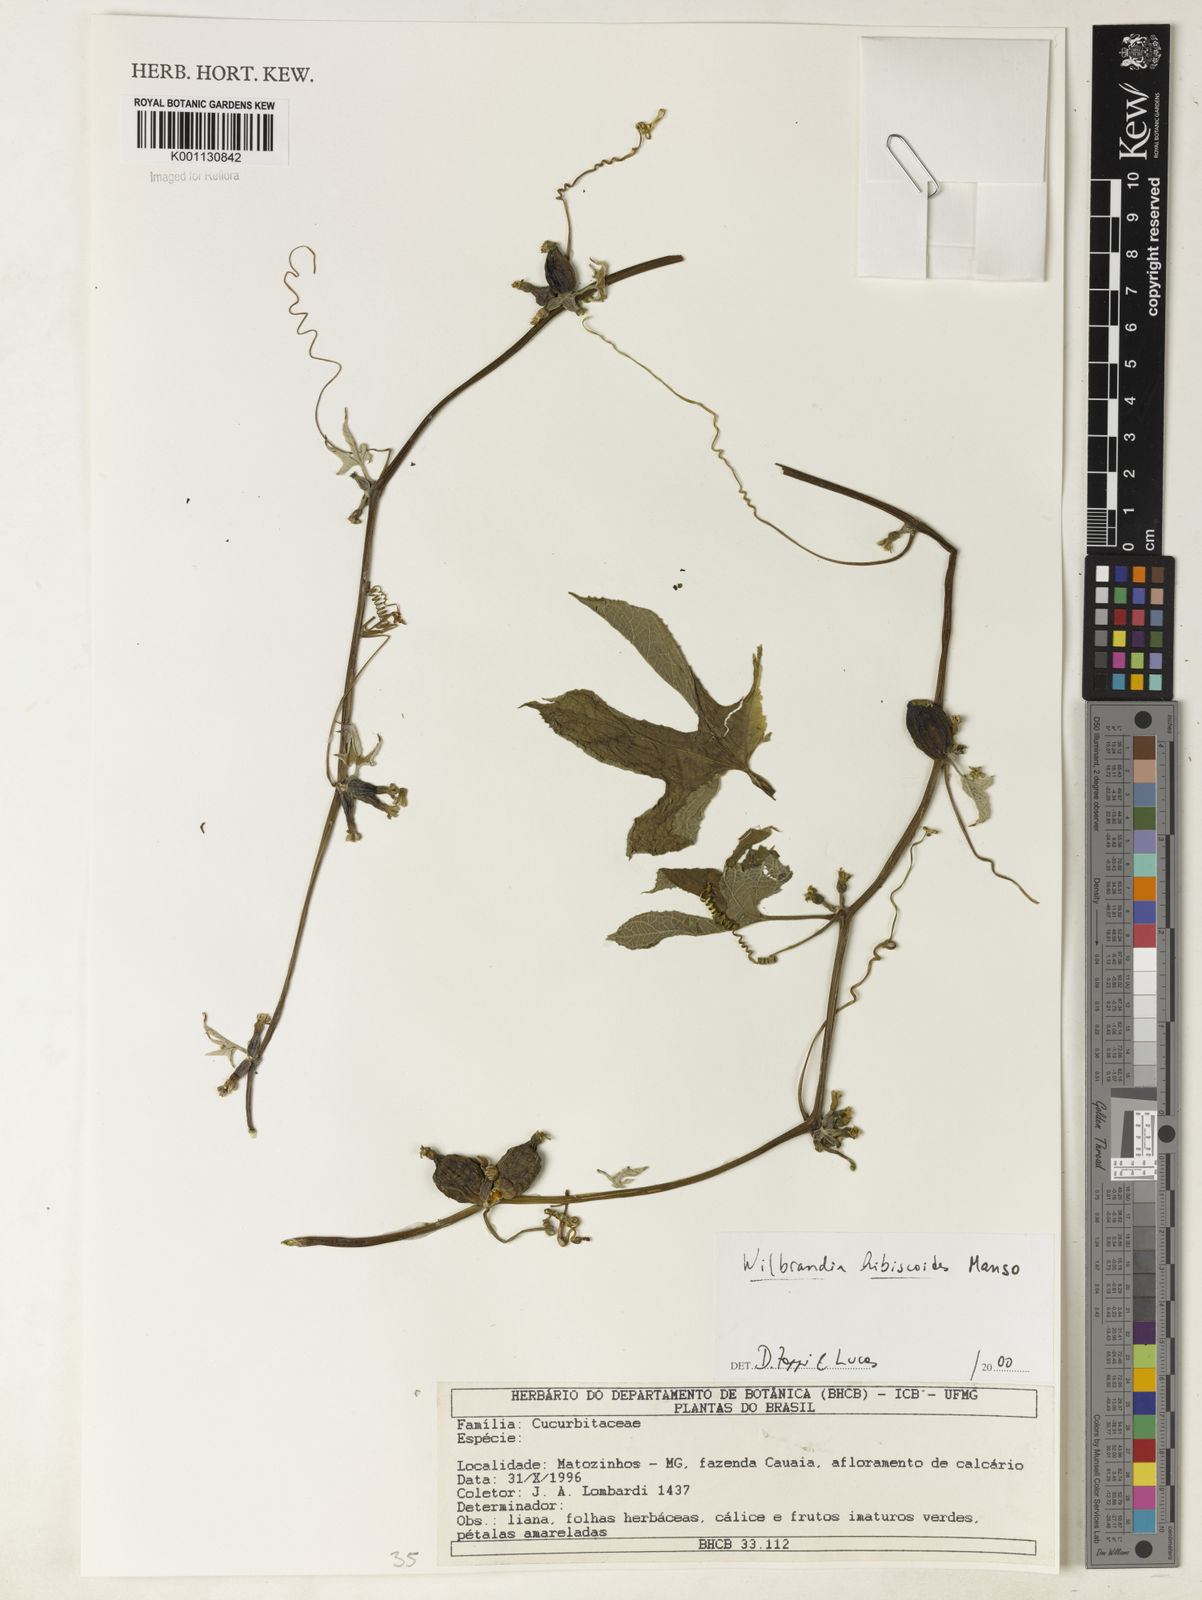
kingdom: Plantae
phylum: Tracheophyta
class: Magnoliopsida
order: Cucurbitales
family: Cucurbitaceae
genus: Wilbrandia
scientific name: Wilbrandia hibiscoides
